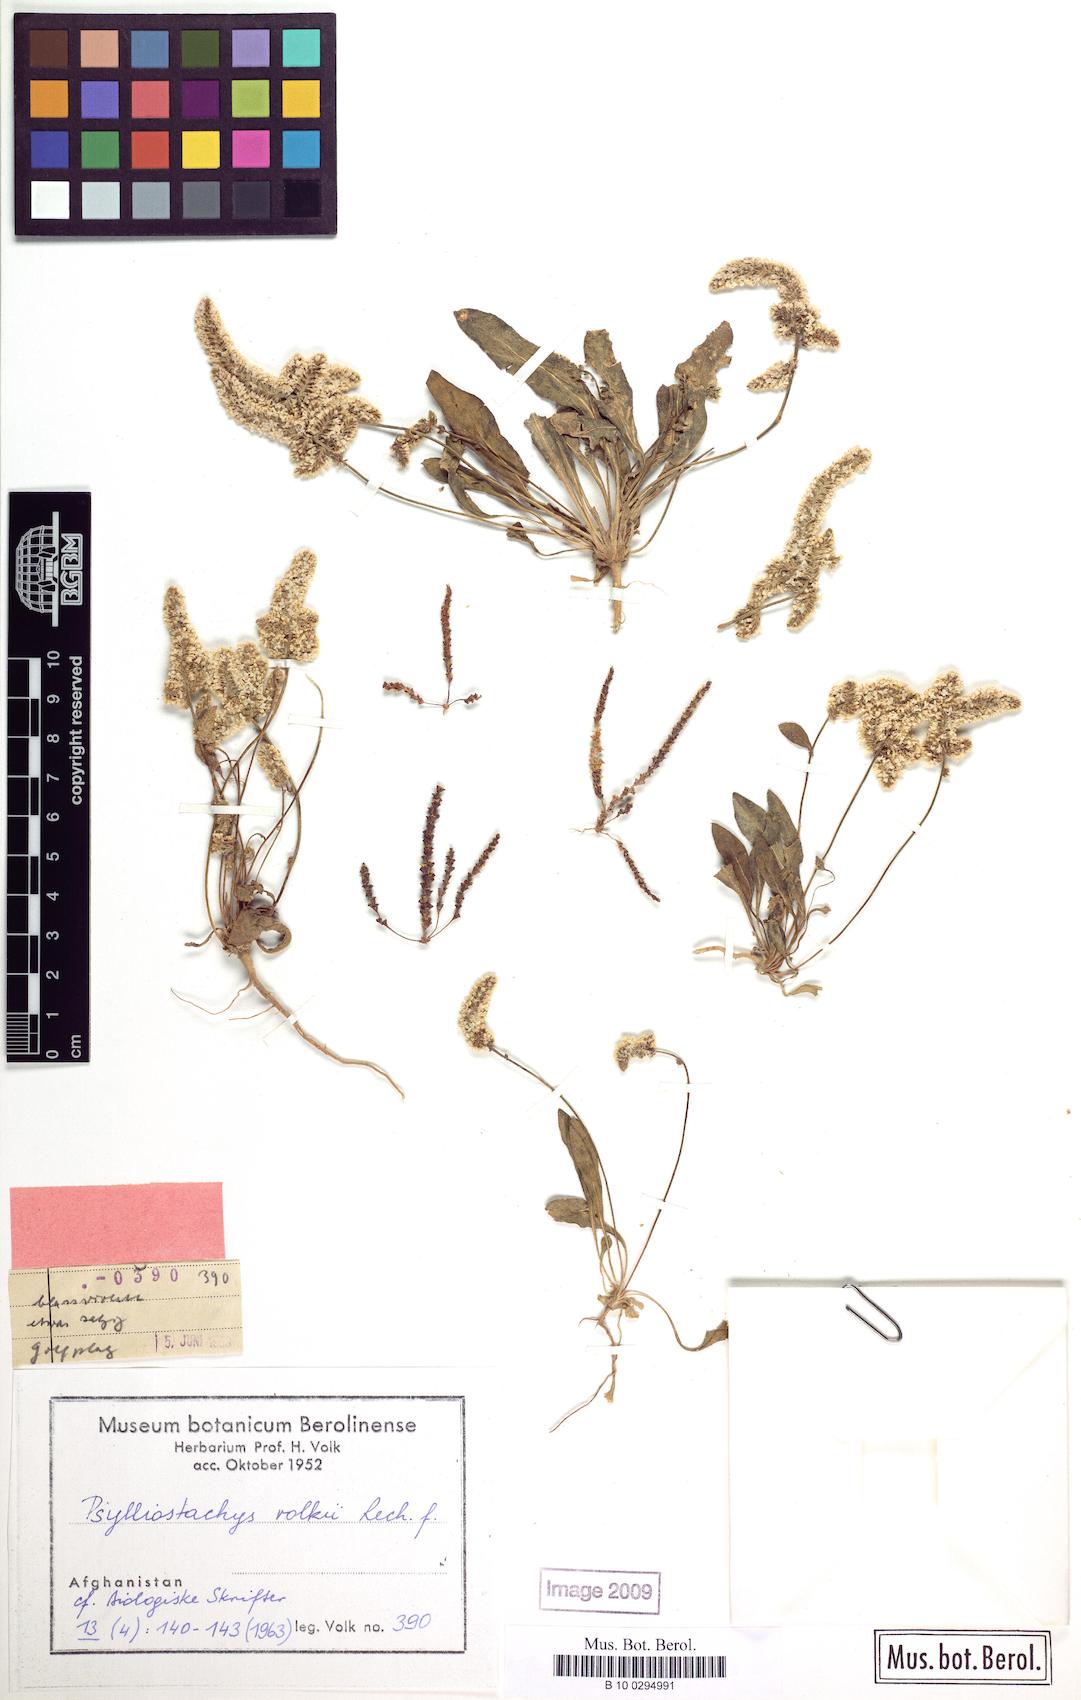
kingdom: Plantae
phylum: Tracheophyta
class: Magnoliopsida
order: Caryophyllales
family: Plumbaginaceae
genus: Psylliostachys
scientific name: Psylliostachys volkii
